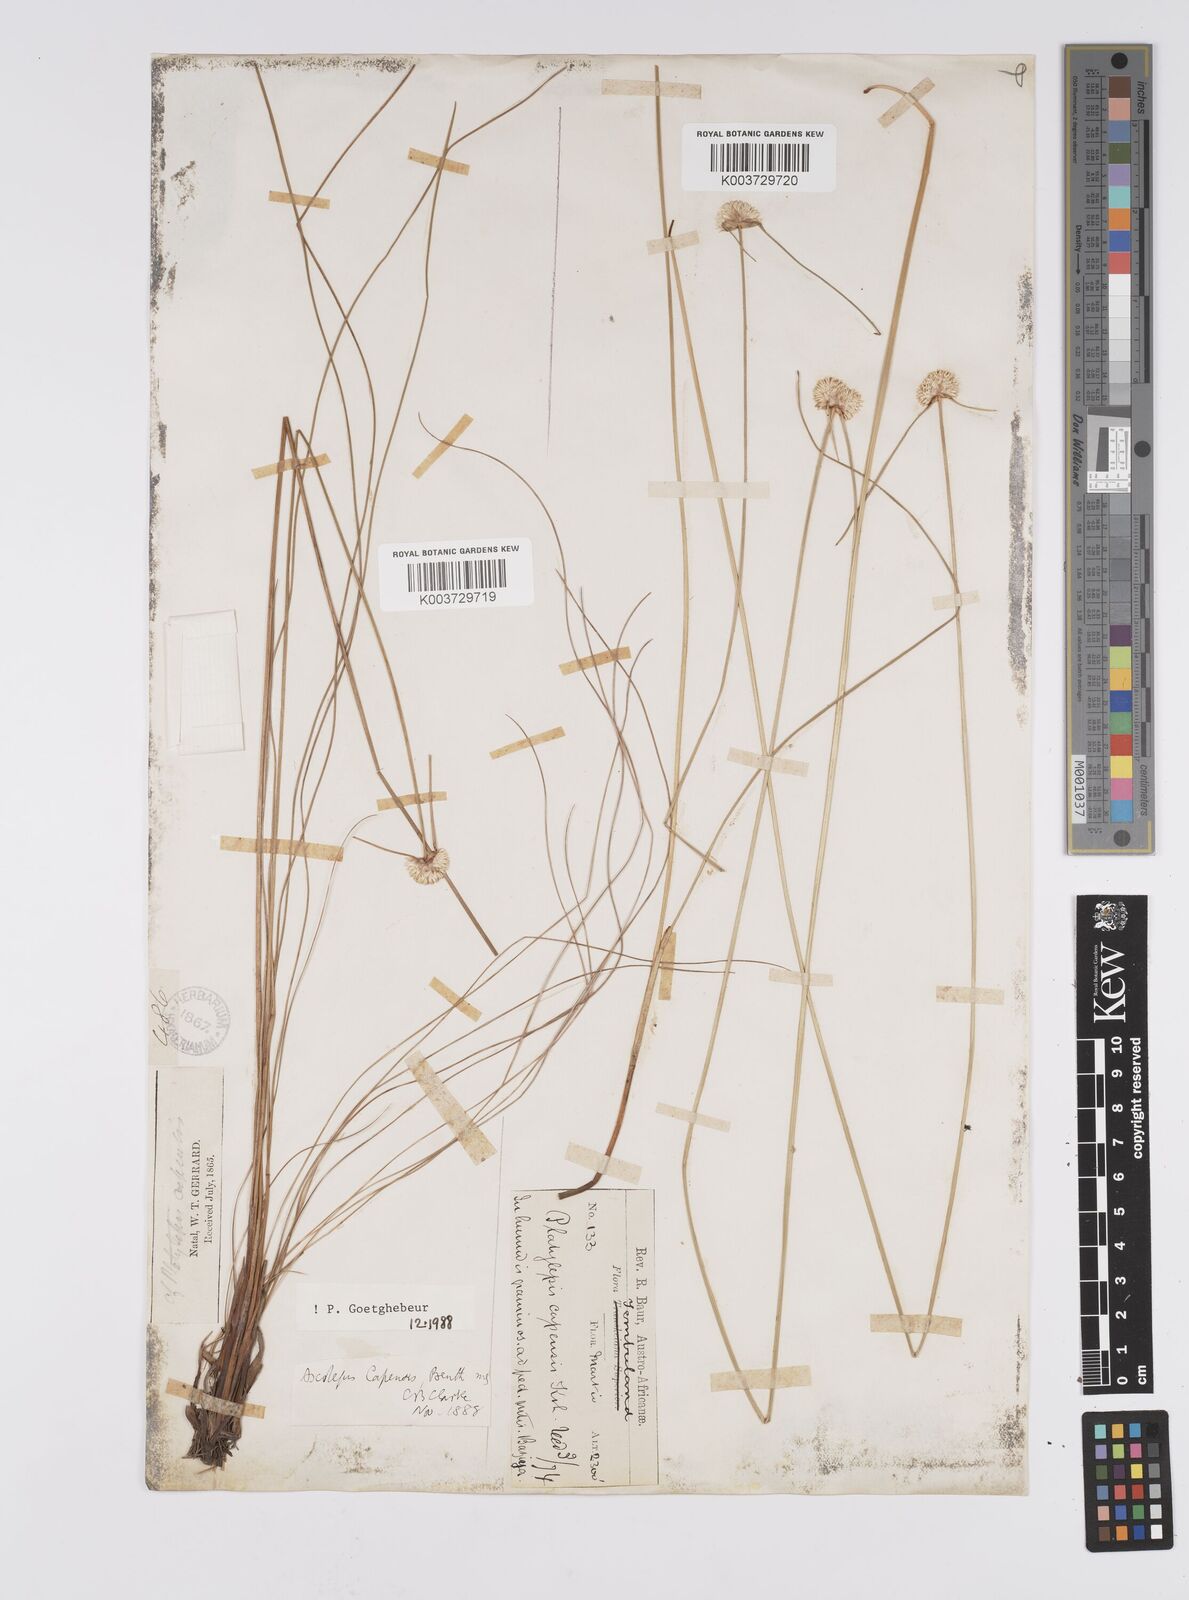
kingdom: Plantae
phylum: Tracheophyta
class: Liliopsida
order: Poales
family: Cyperaceae
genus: Cyperus
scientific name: Cyperus capensis
